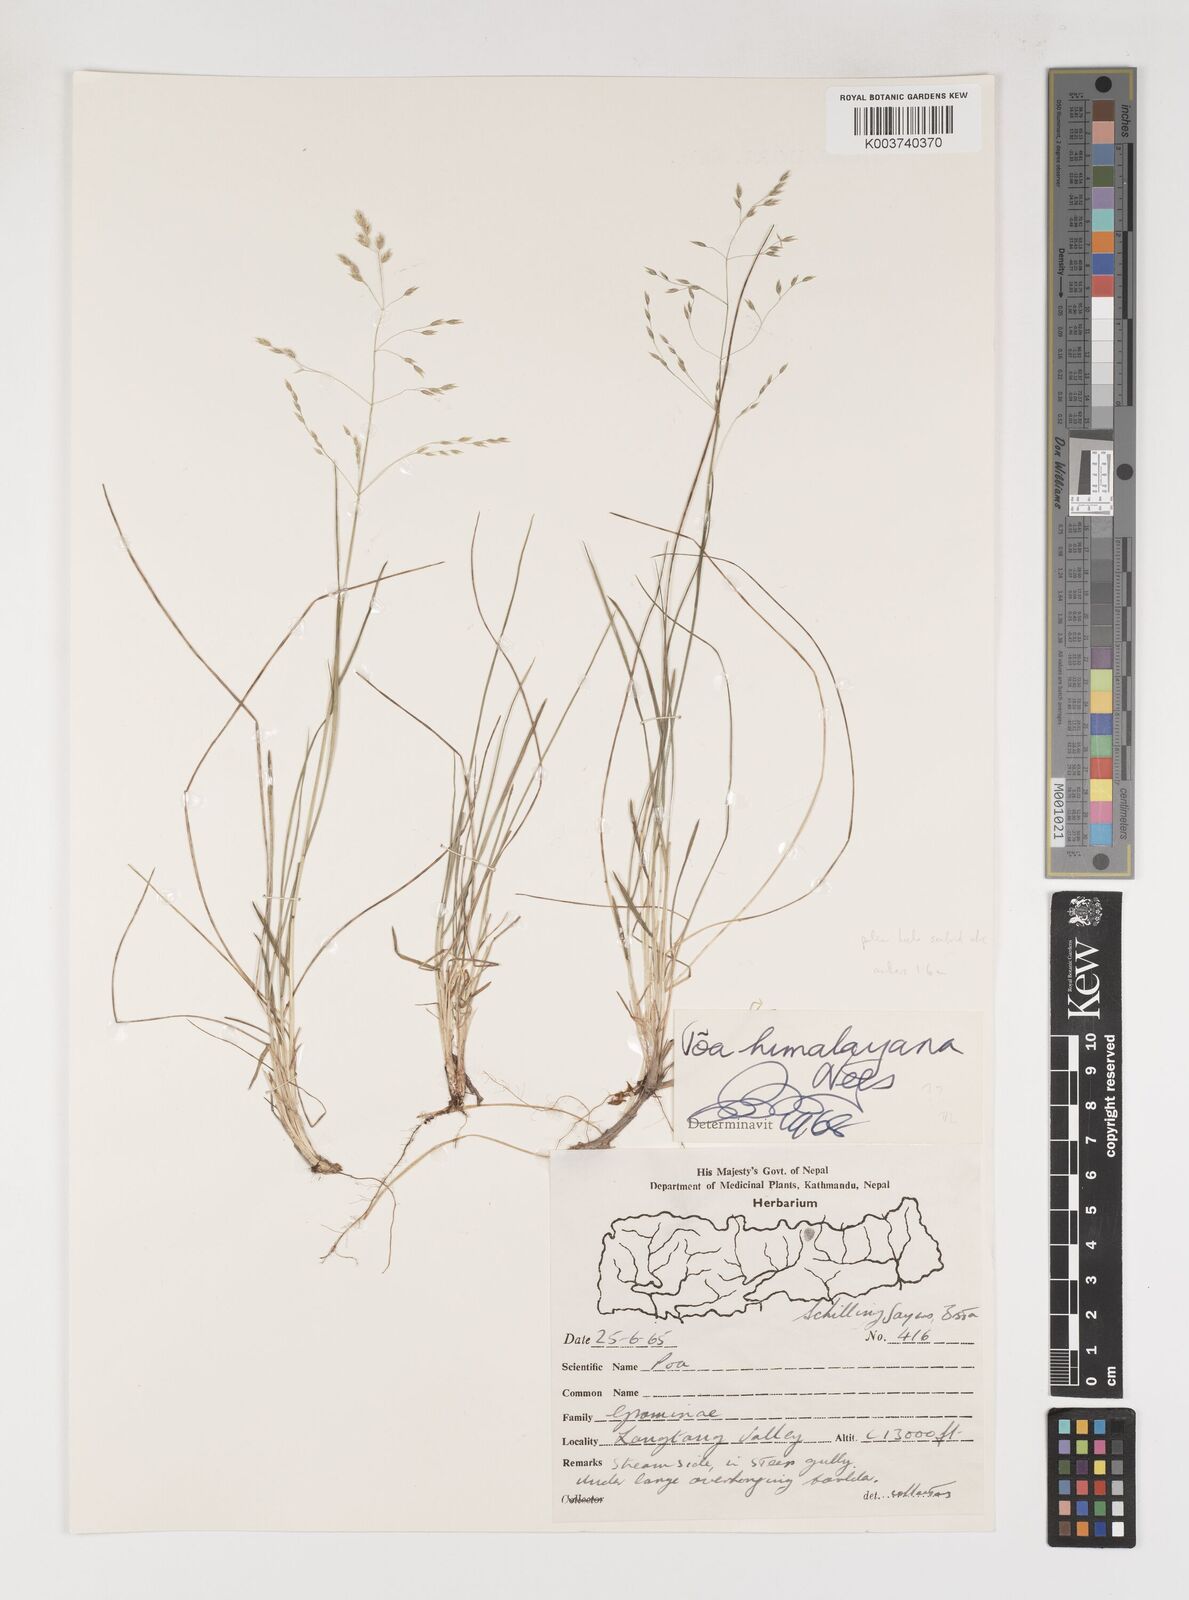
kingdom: Plantae
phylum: Tracheophyta
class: Liliopsida
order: Poales
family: Poaceae
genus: Poa
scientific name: Poa himalayana
